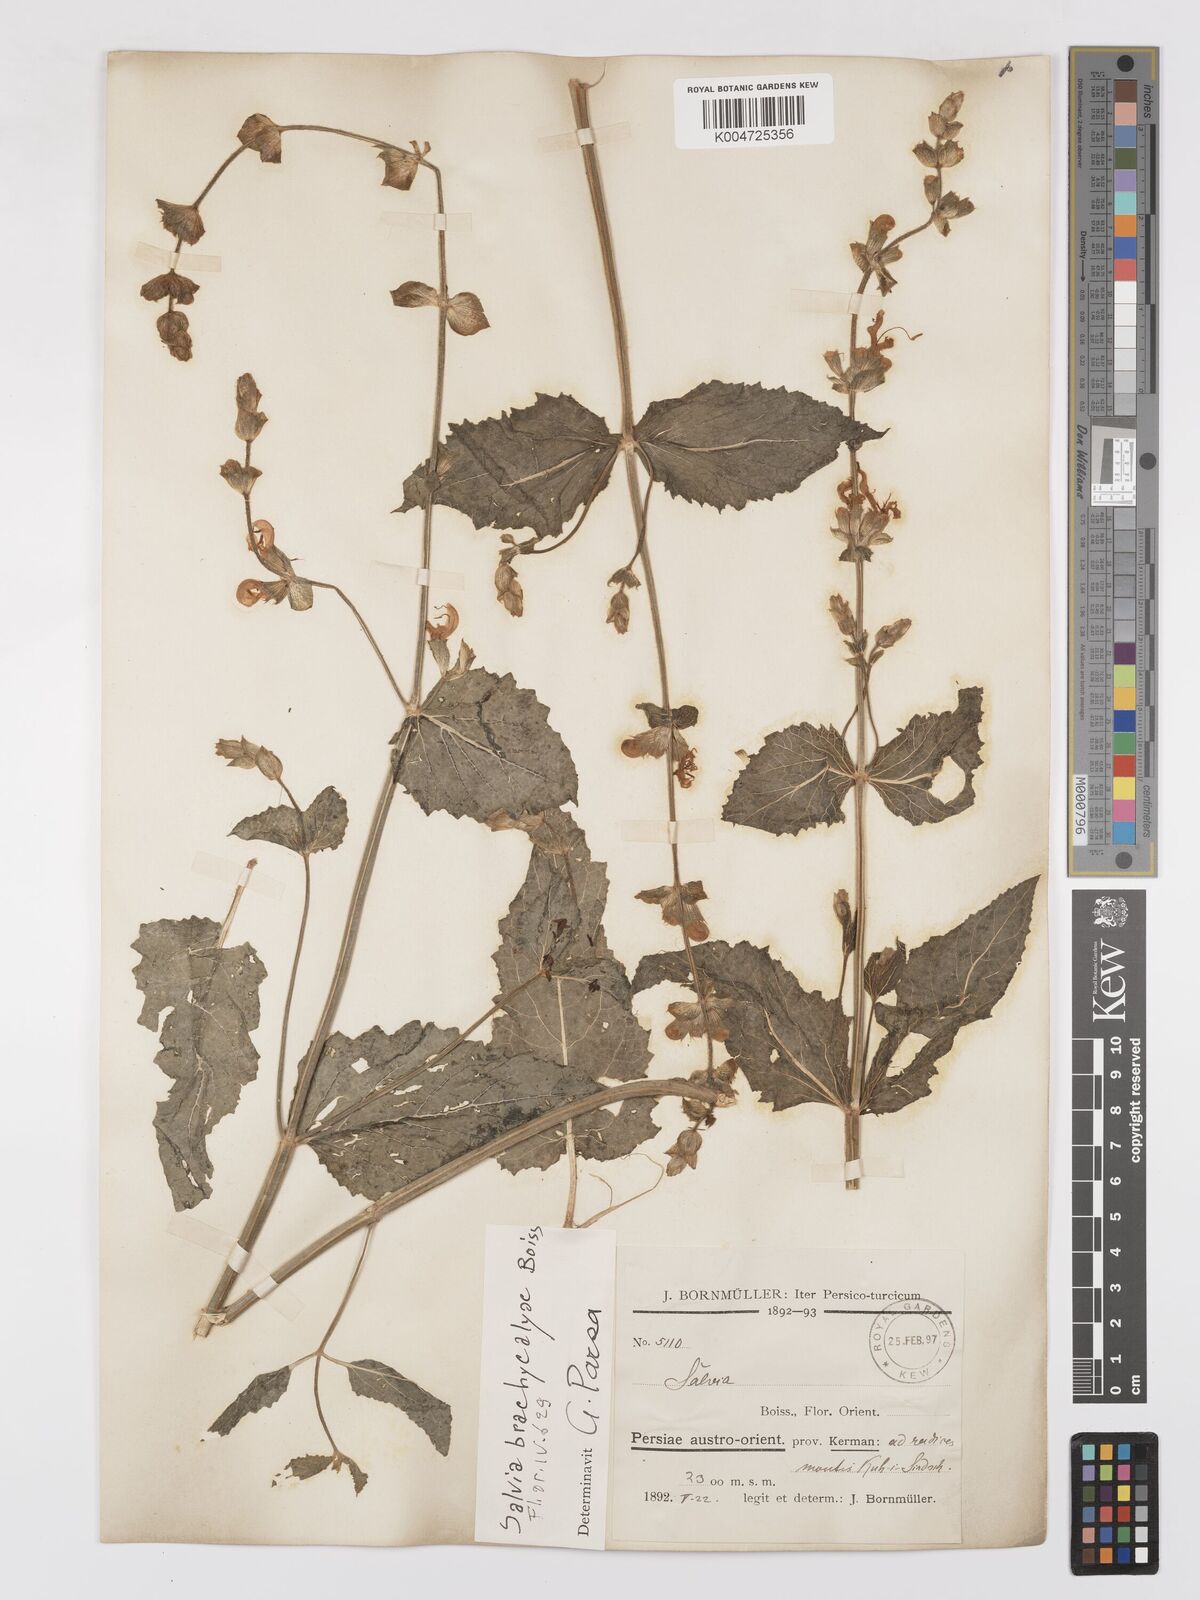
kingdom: Plantae
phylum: Tracheophyta
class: Magnoliopsida
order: Lamiales
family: Lamiaceae
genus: Salvia
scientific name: Salvia indica
